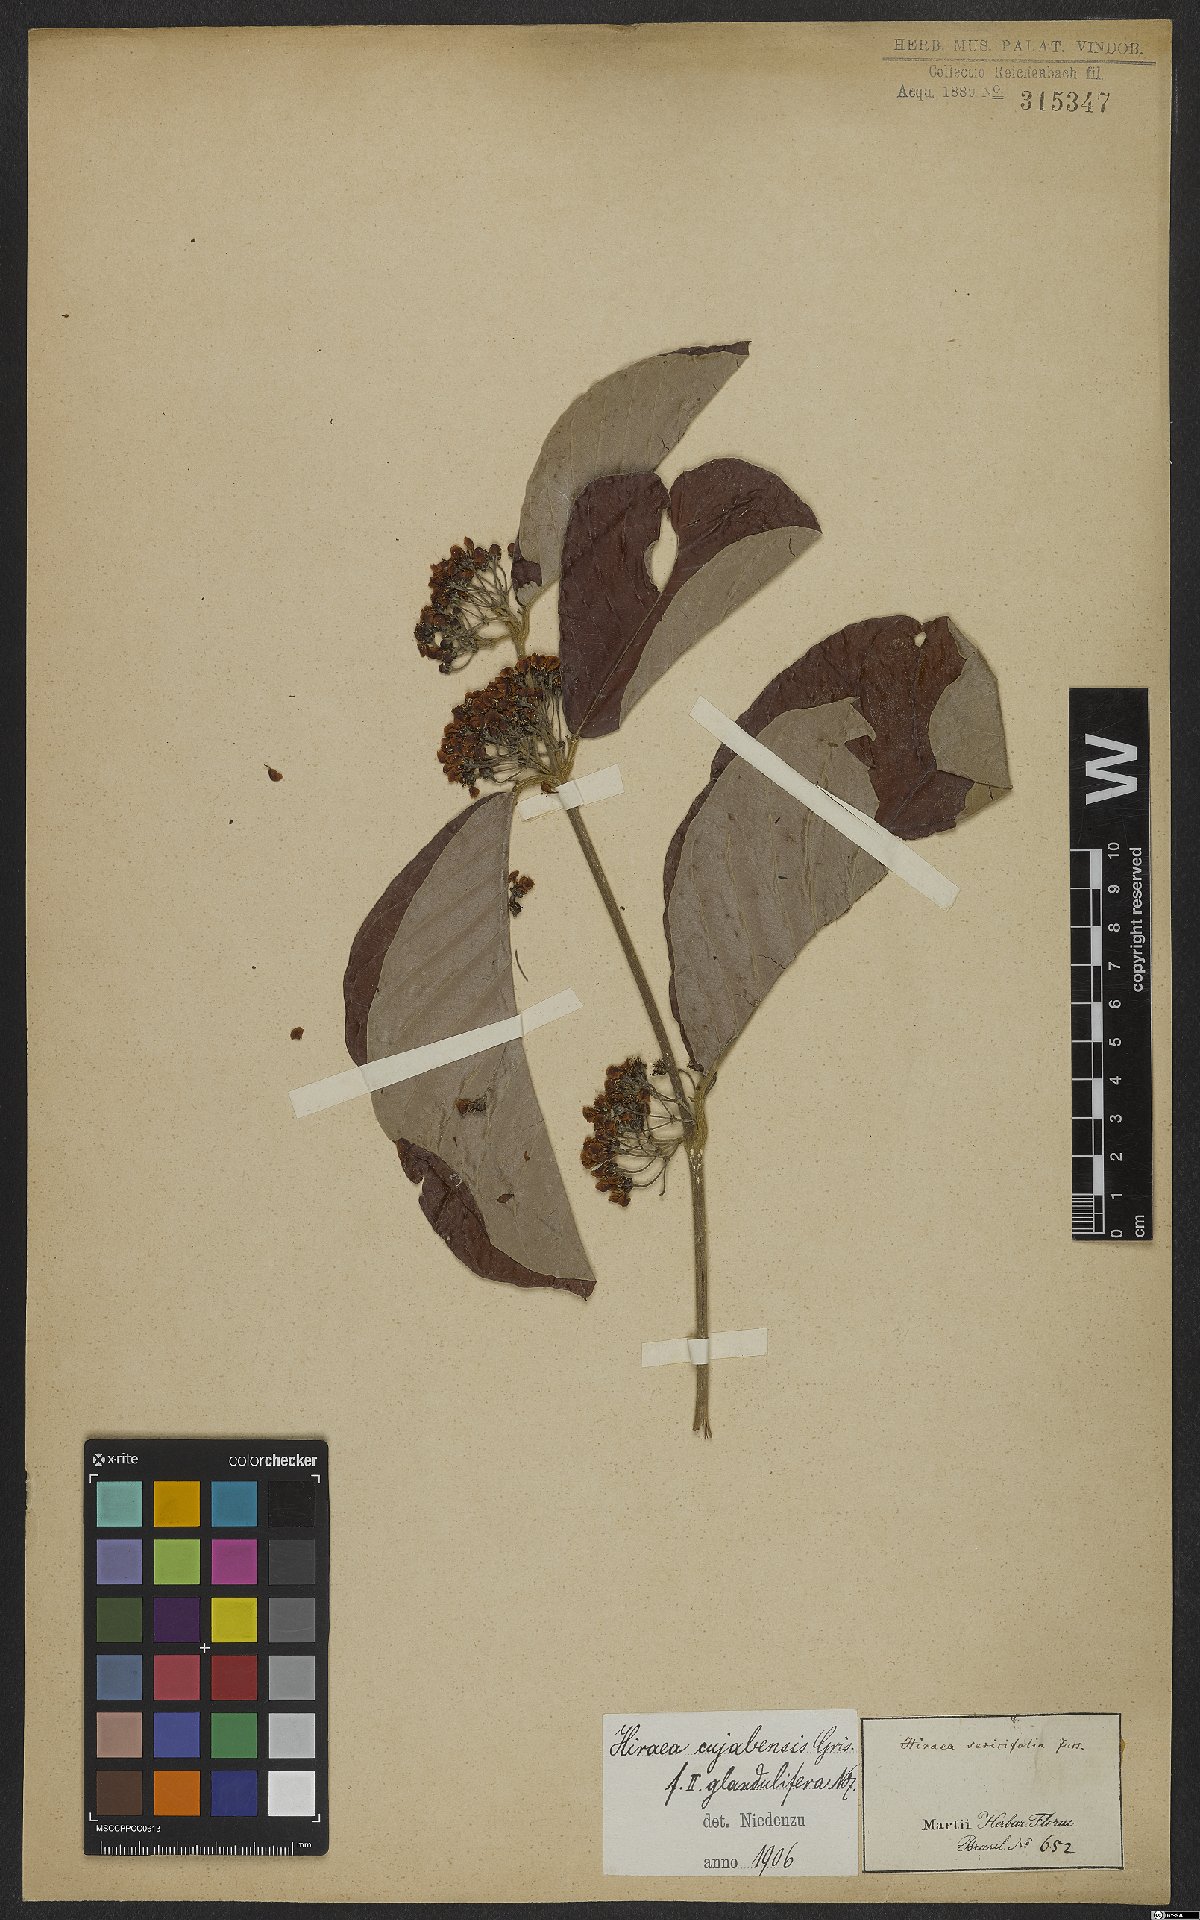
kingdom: Plantae
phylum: Tracheophyta
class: Magnoliopsida
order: Malpighiales
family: Malpighiaceae
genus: Hiraea
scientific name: Hiraea cuiabensis
